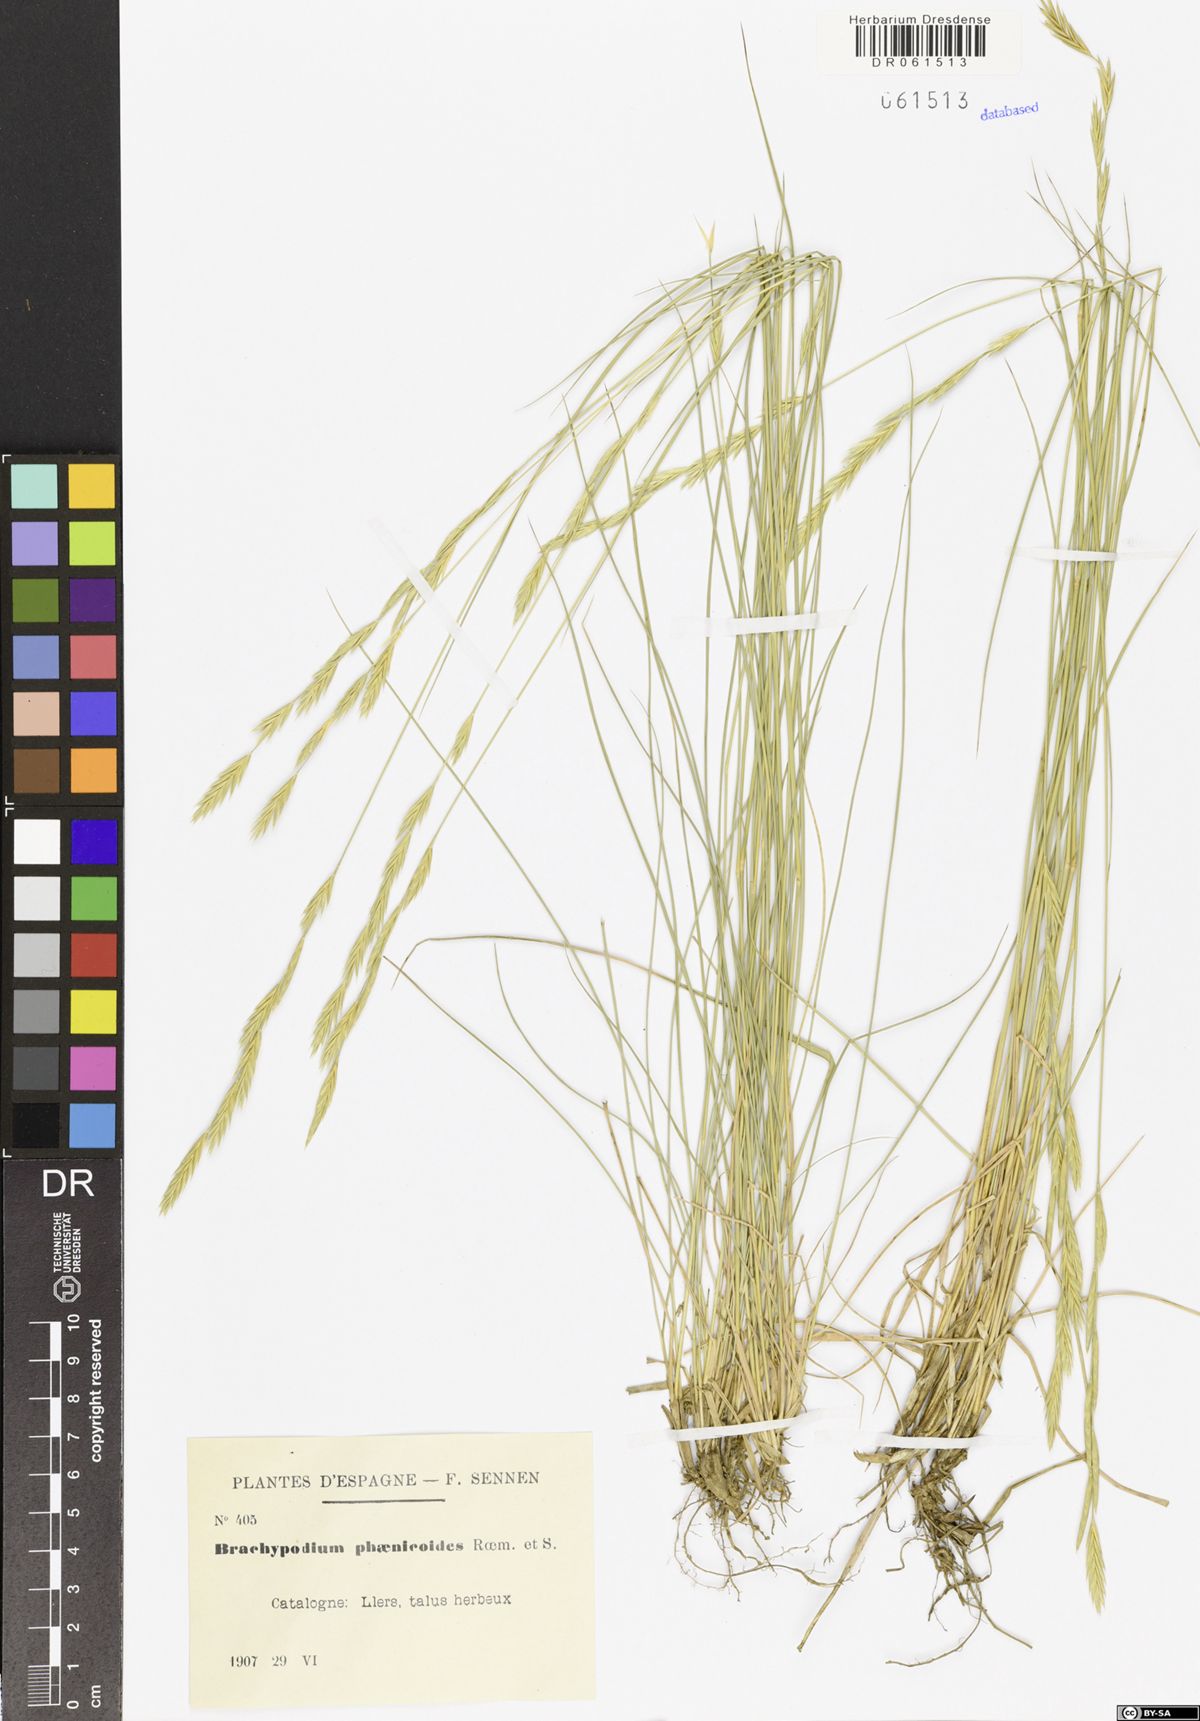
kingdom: Plantae
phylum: Tracheophyta
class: Liliopsida
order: Poales
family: Poaceae
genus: Brachypodium
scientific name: Brachypodium phoenicoides
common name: Thinleaf false brome
